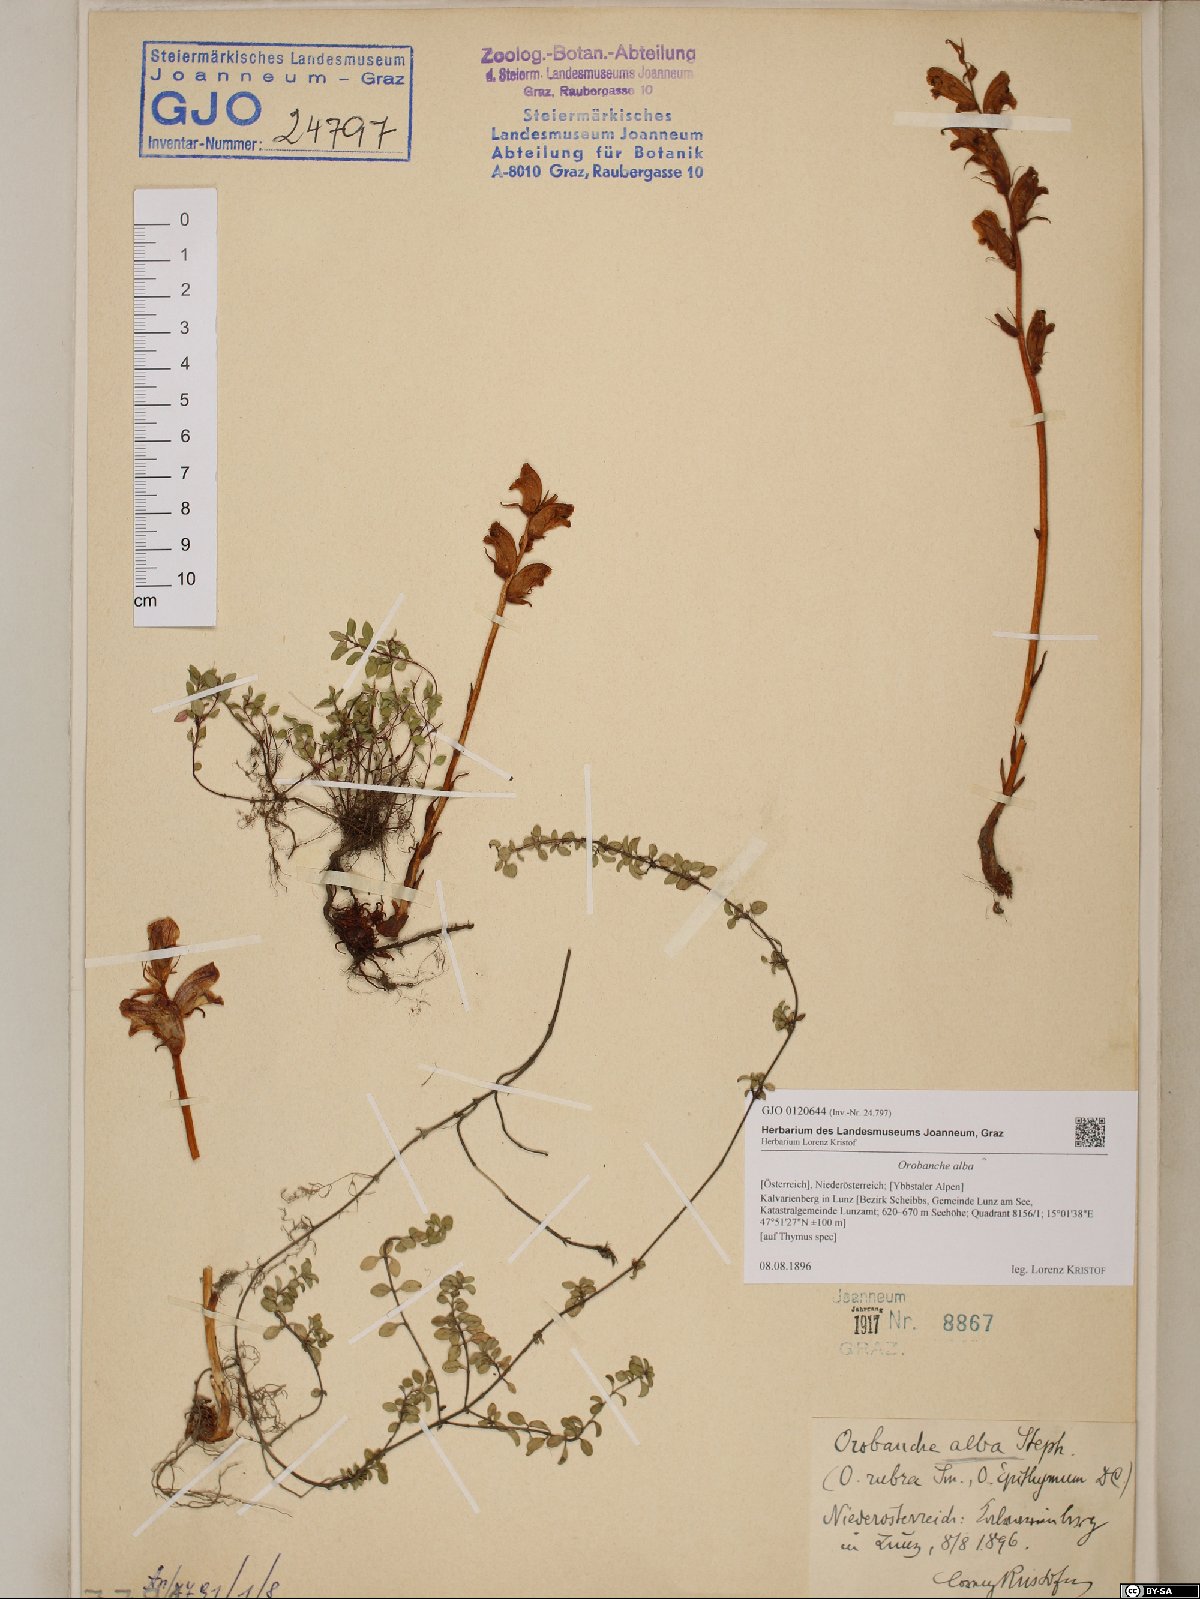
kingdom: Plantae
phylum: Tracheophyta
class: Magnoliopsida
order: Lamiales
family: Orobanchaceae
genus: Orobanche
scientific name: Orobanche alba
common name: Thyme broomrape
